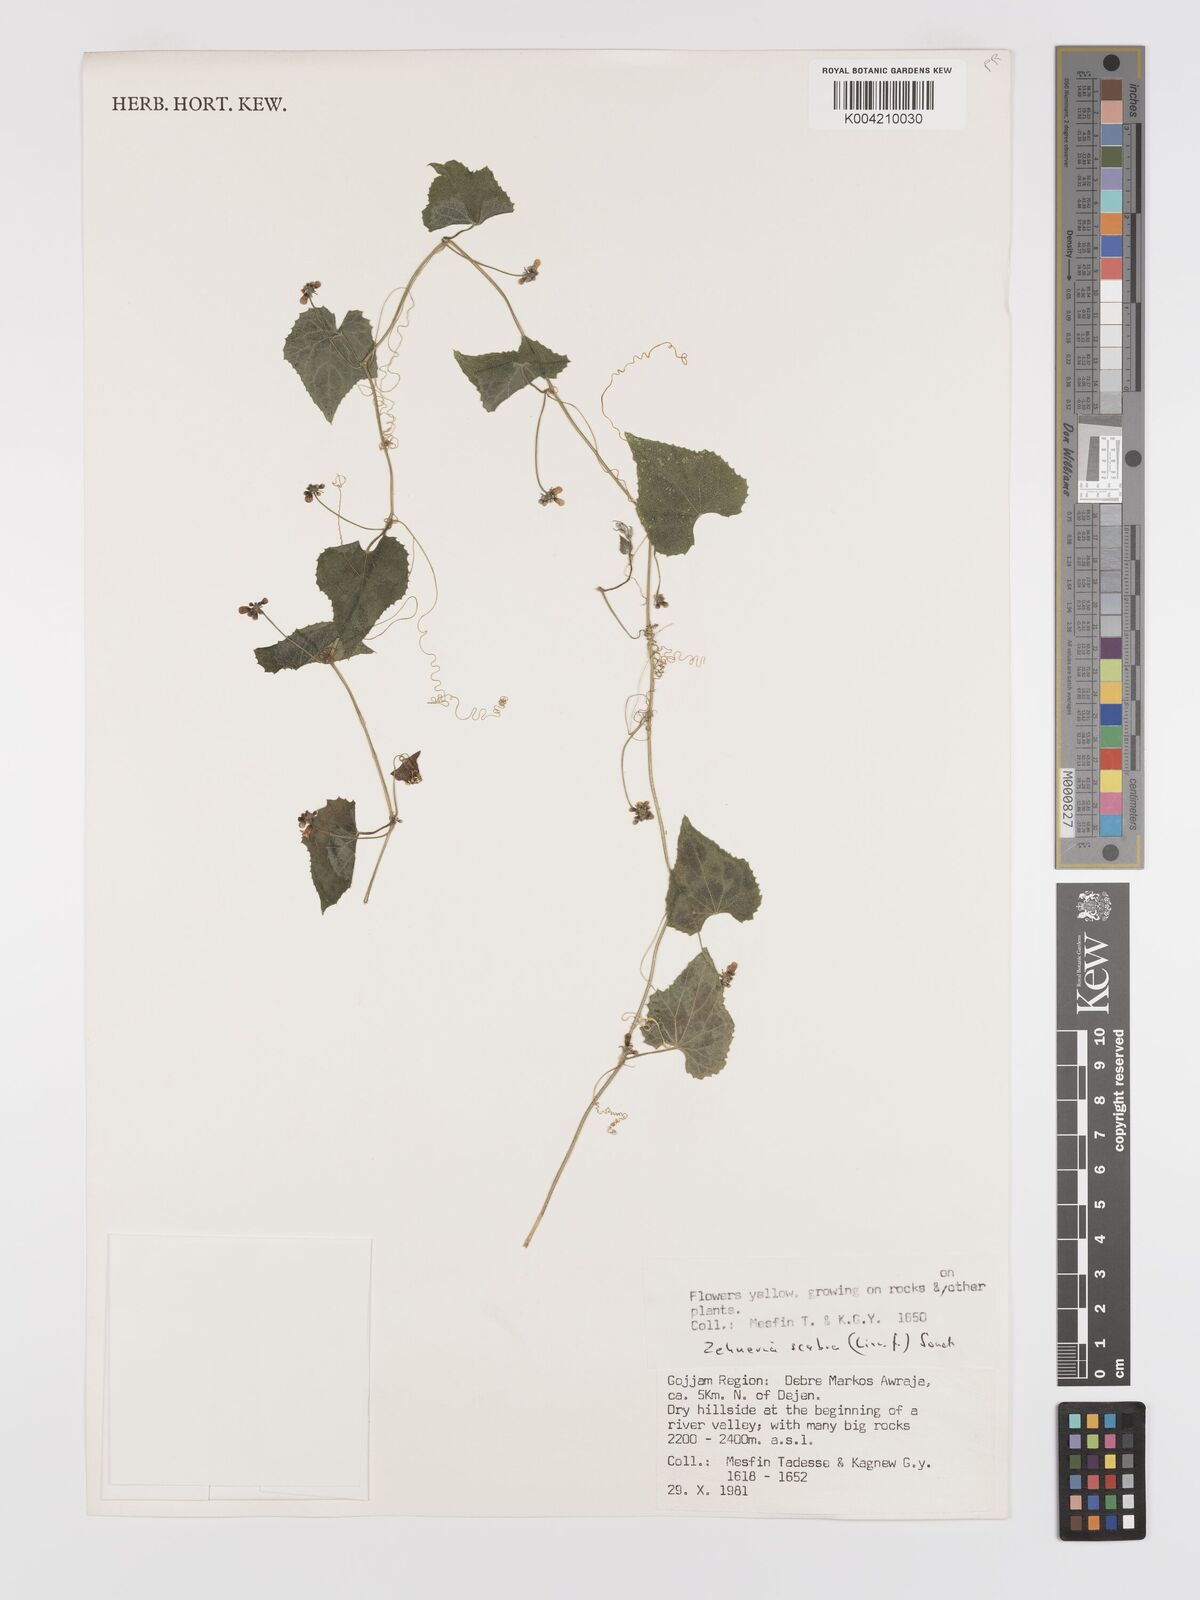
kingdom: Plantae
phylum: Tracheophyta
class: Magnoliopsida
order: Cucurbitales
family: Cucurbitaceae
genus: Zehneria
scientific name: Zehneria scabra
